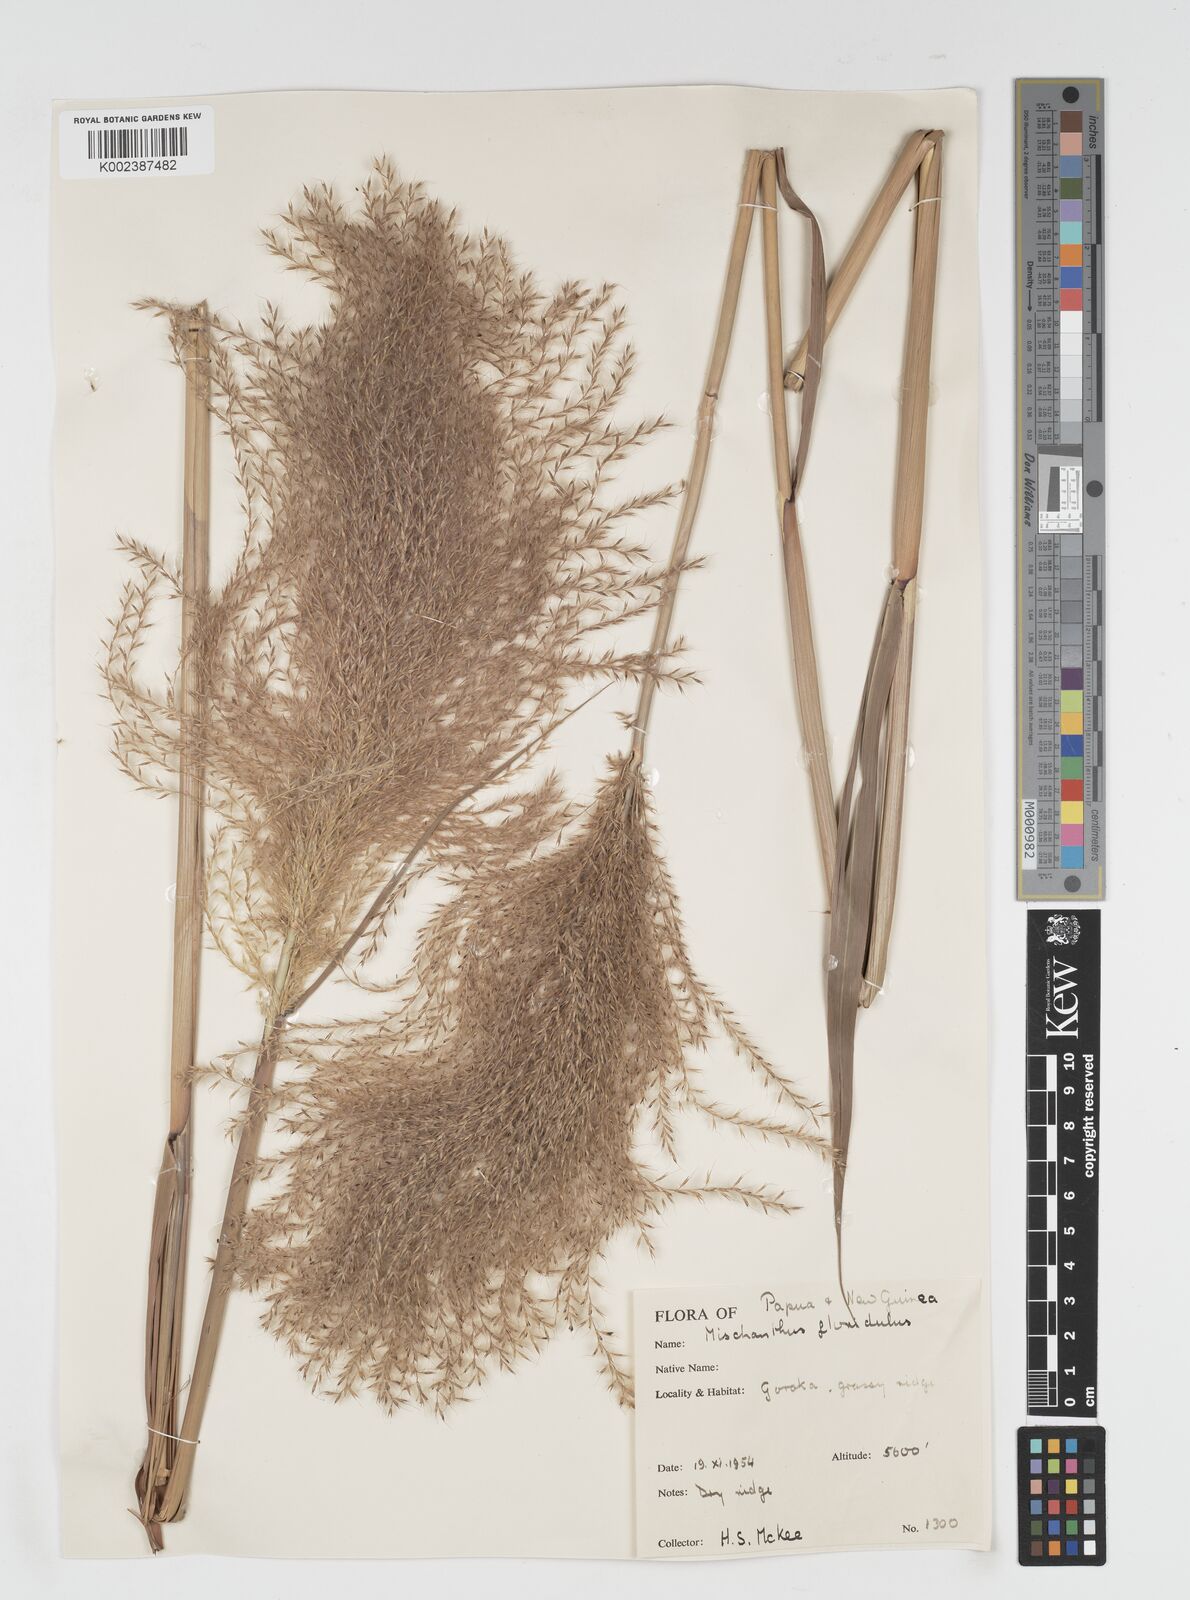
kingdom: Plantae
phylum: Tracheophyta
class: Liliopsida
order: Poales
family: Poaceae
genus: Miscanthus
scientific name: Miscanthus floridulus
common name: Pacific island silvergrass
